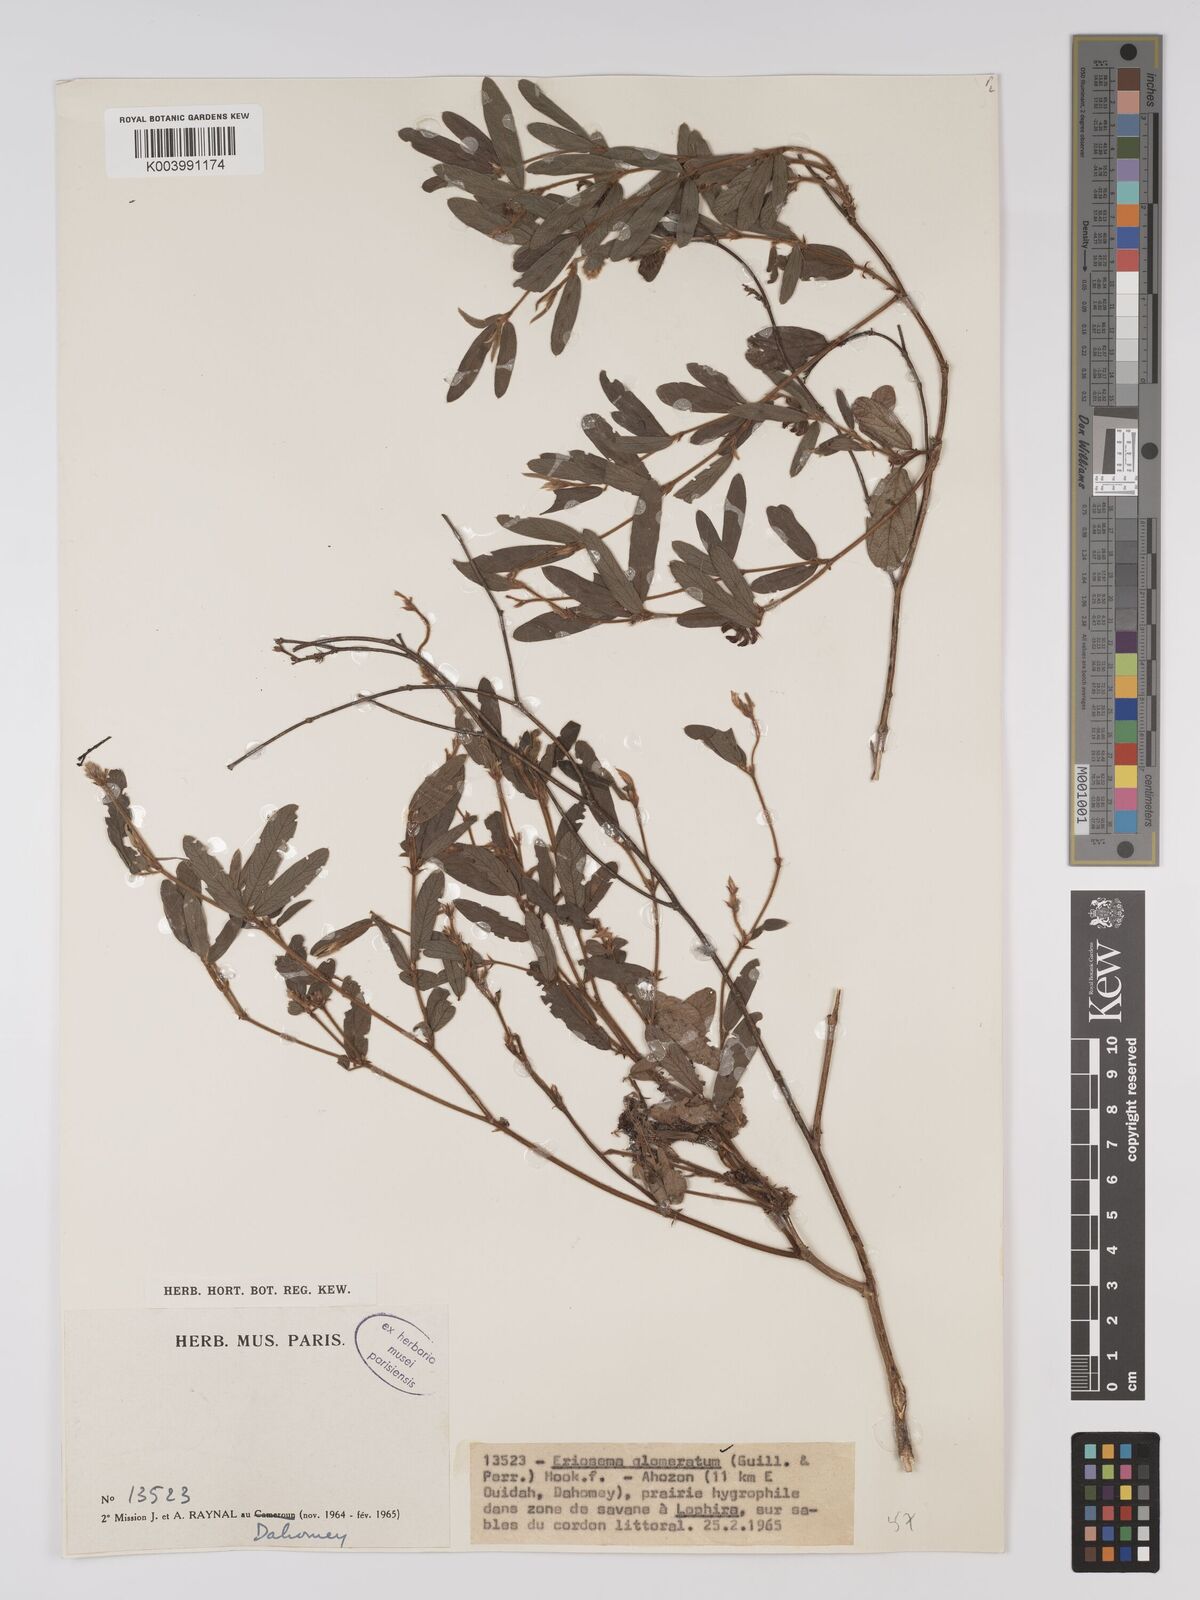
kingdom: Plantae
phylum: Tracheophyta
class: Magnoliopsida
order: Fabales
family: Fabaceae
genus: Eriosema
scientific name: Eriosema glomeratum
